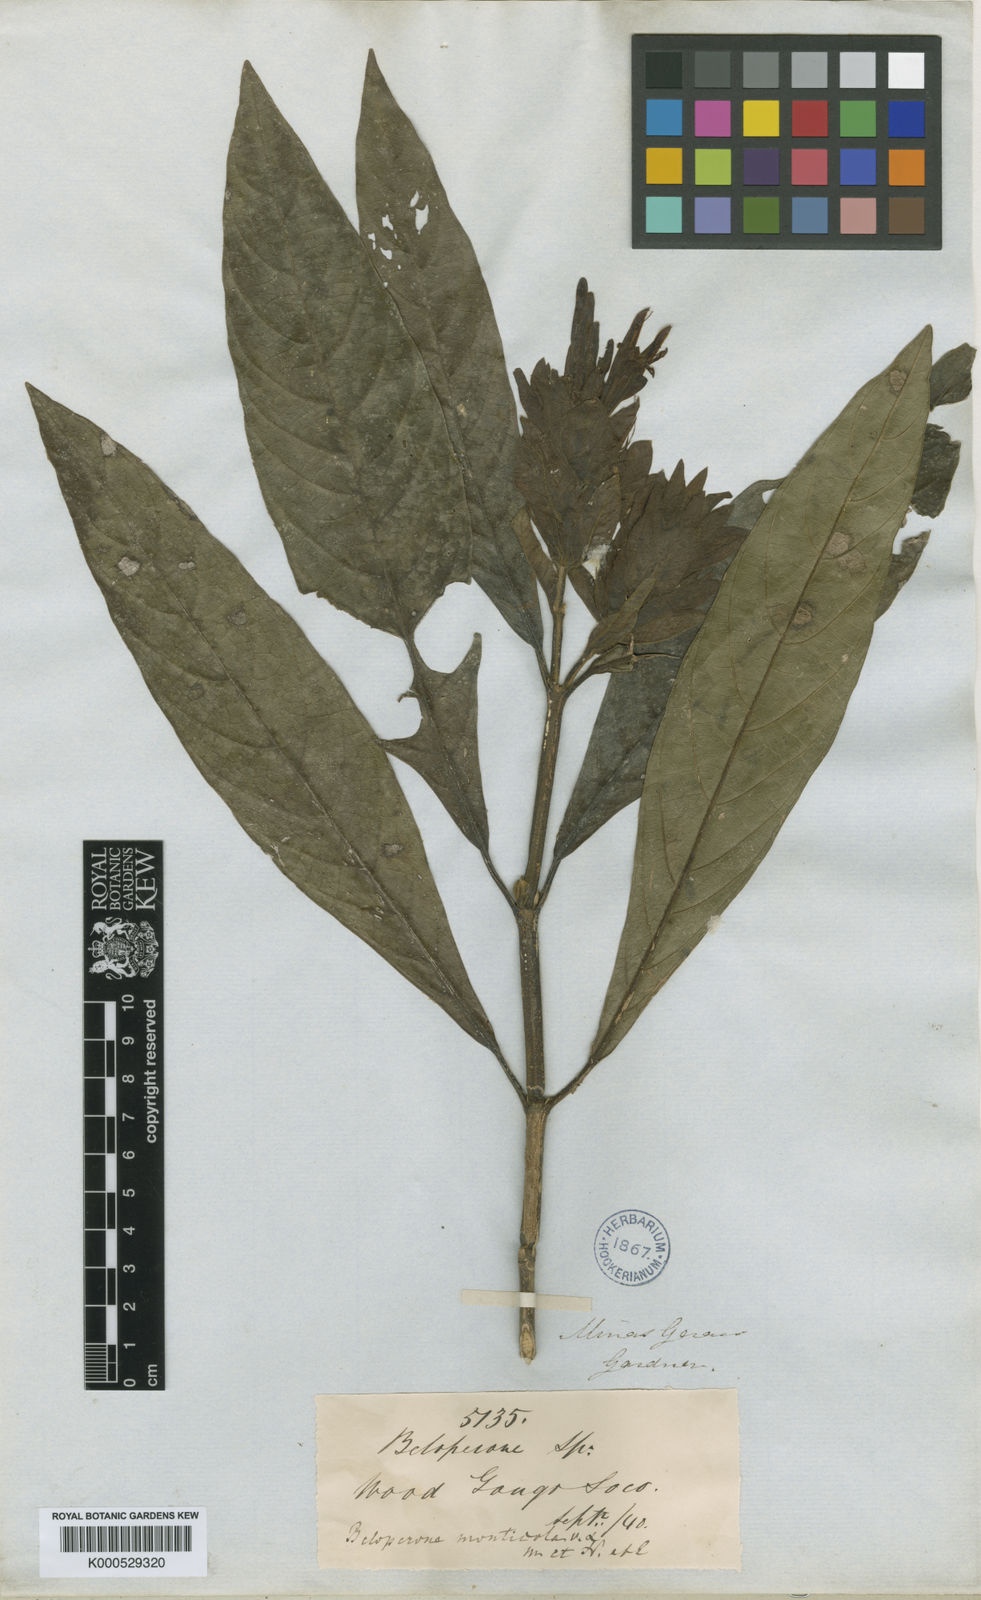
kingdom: Plantae
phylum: Tracheophyta
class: Magnoliopsida
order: Lamiales
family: Acanthaceae
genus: Justicia
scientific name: Justicia monticola
